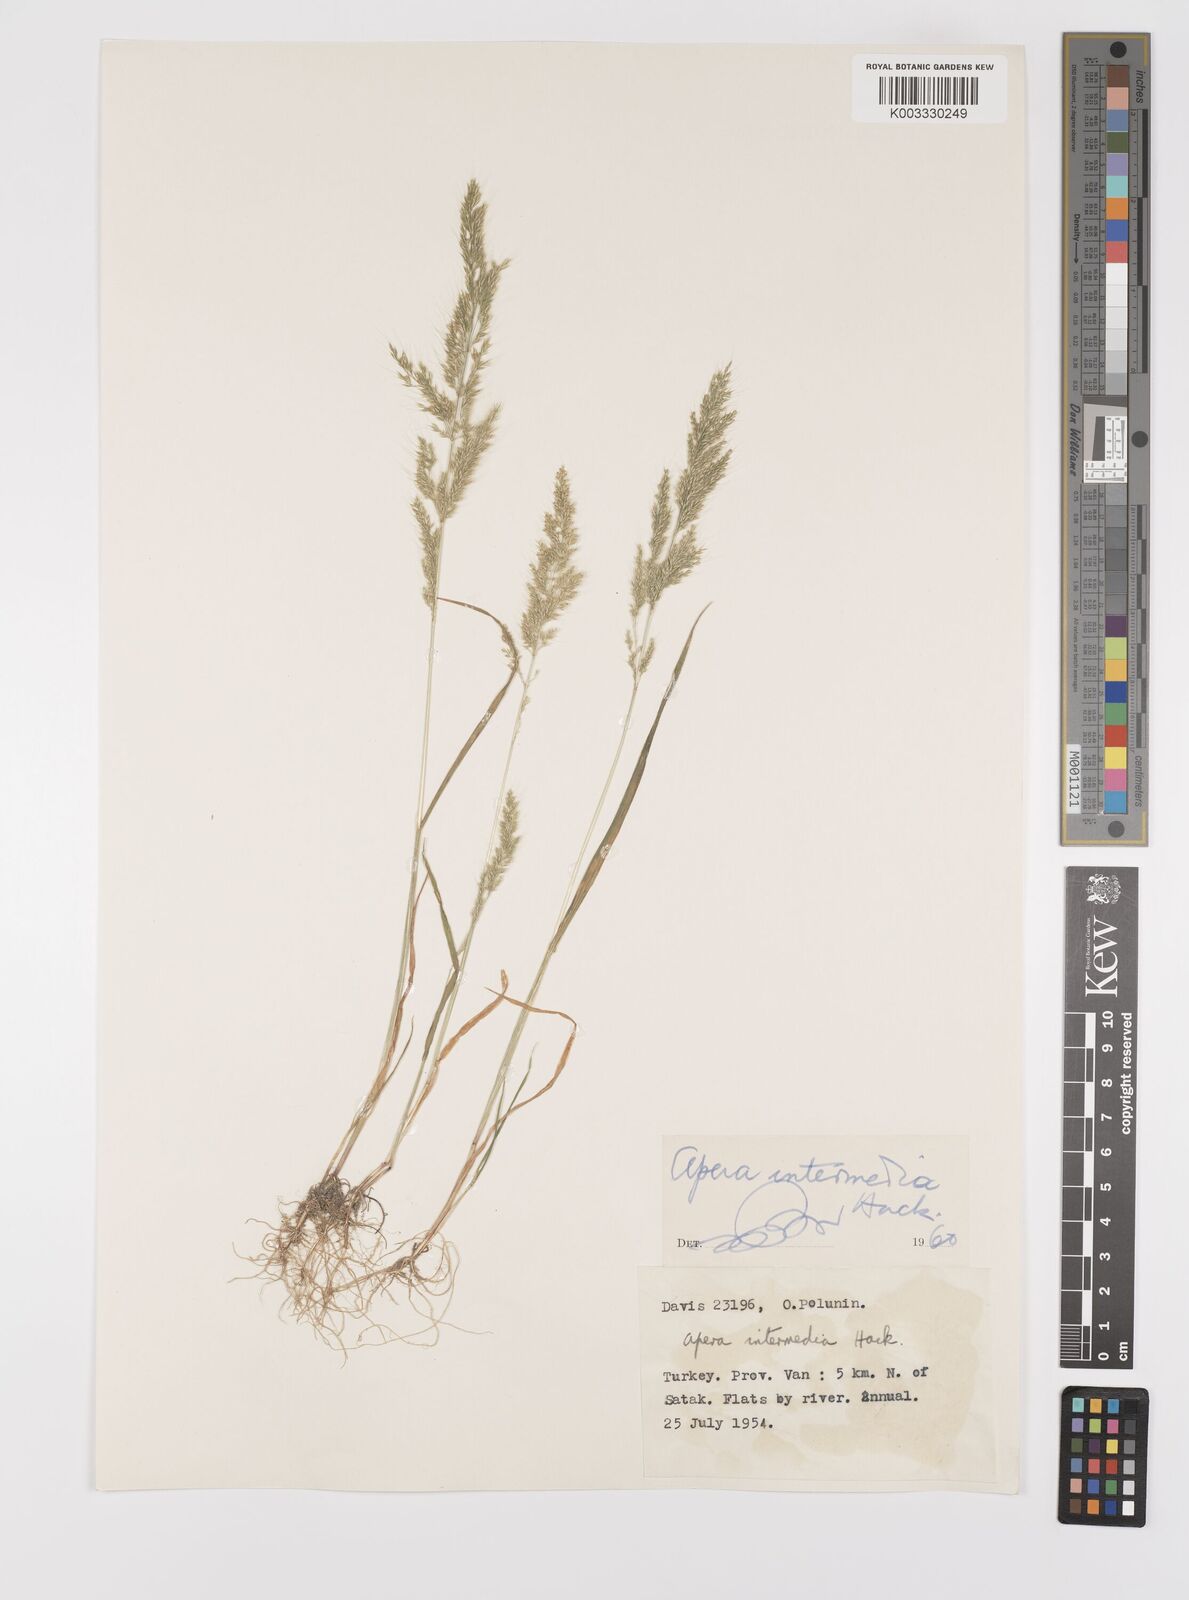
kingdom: Plantae
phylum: Tracheophyta
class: Liliopsida
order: Poales
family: Poaceae
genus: Apera
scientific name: Apera intermedia
